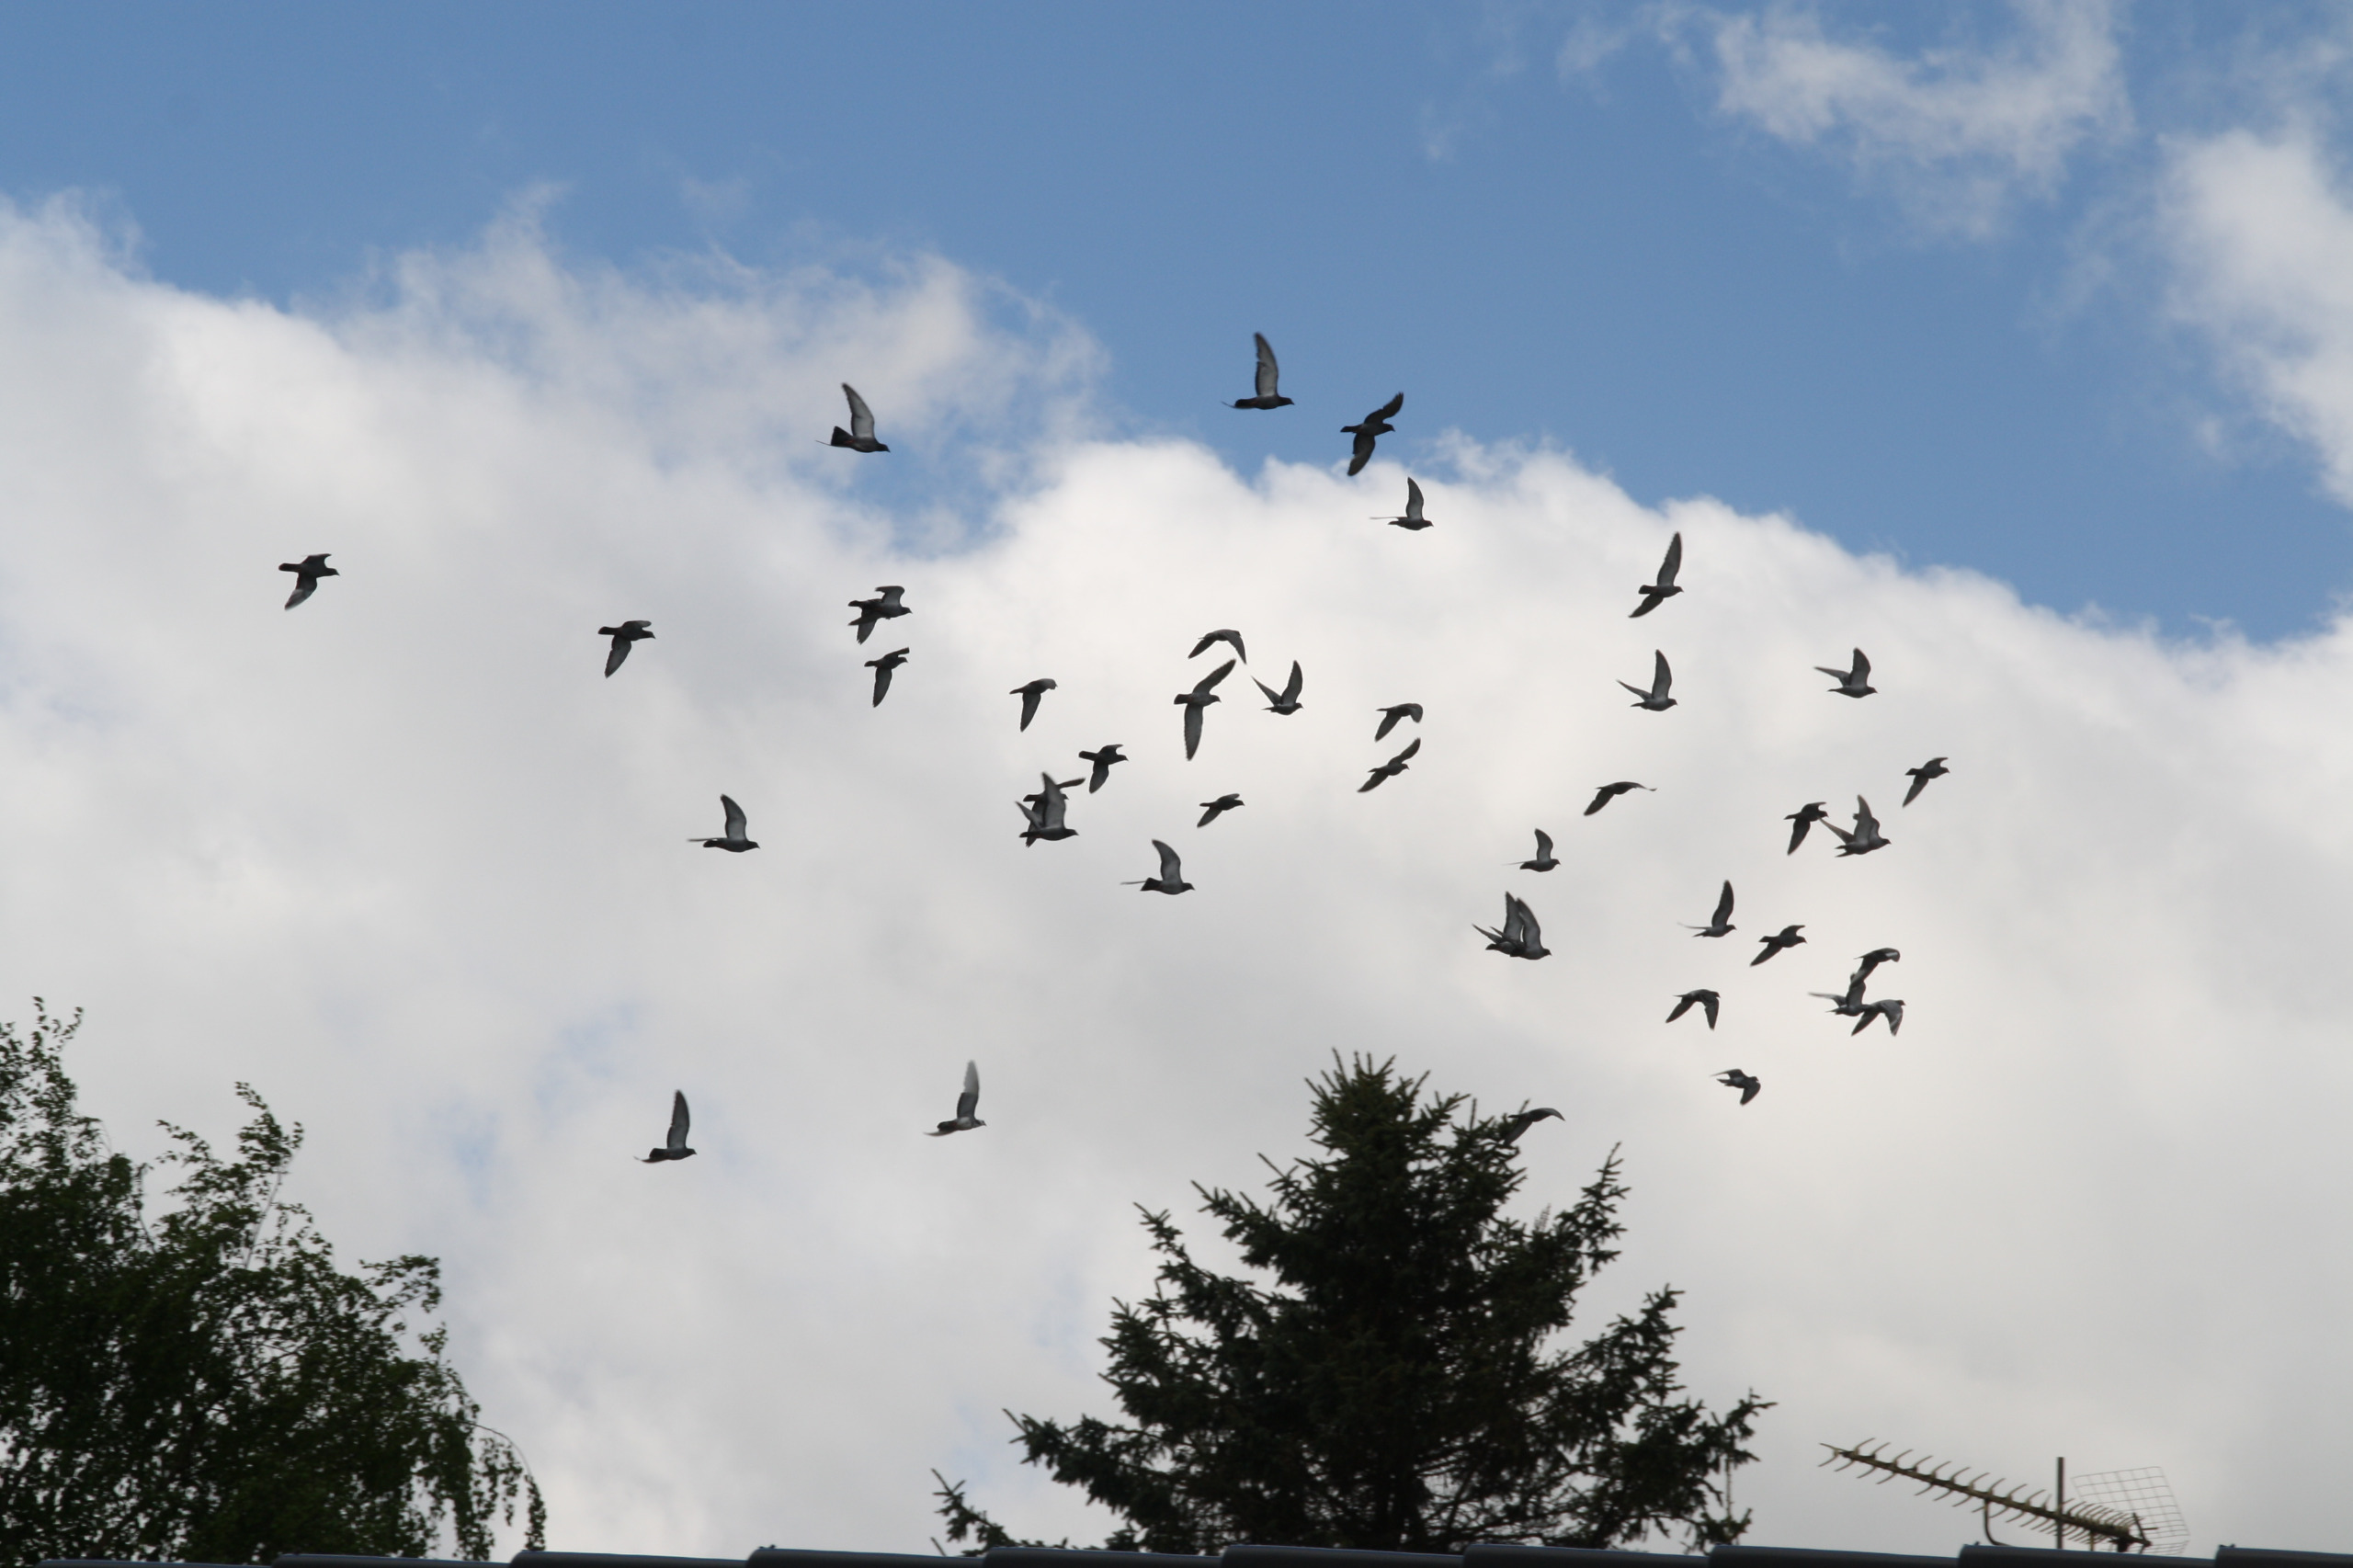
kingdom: Animalia
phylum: Chordata
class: Aves
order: Columbiformes
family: Columbidae
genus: Columba
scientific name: Columba livia
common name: Klippedue
